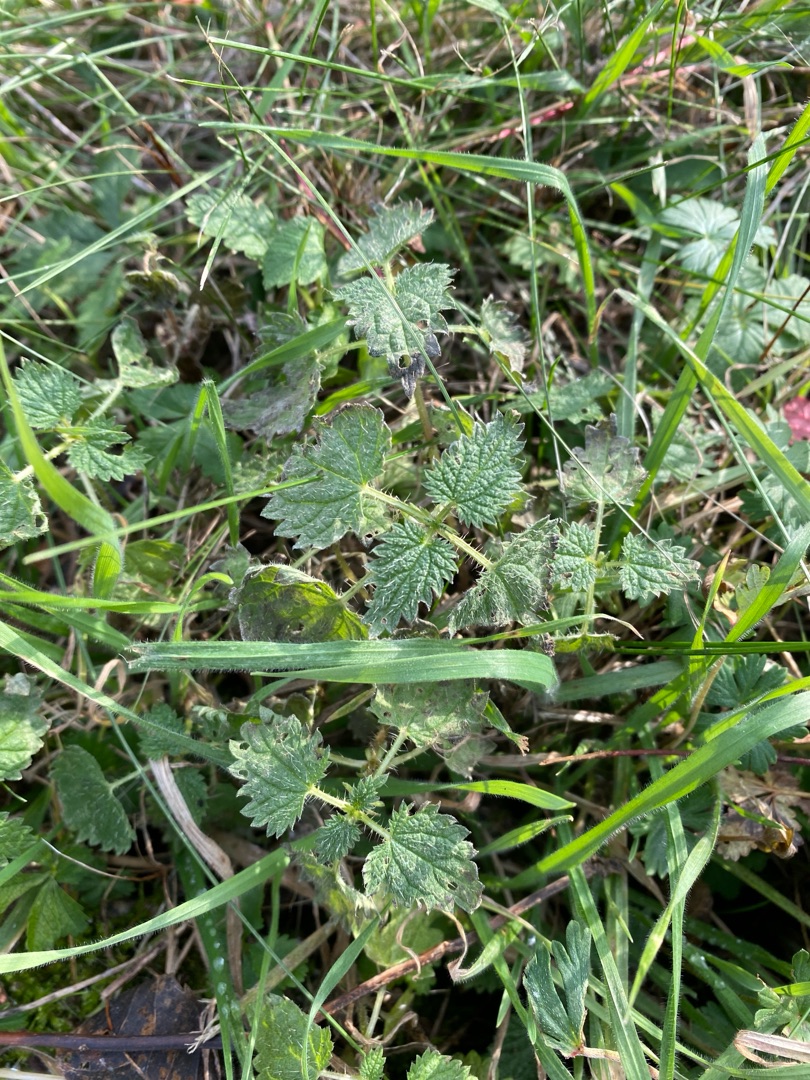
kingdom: Plantae
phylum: Tracheophyta
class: Magnoliopsida
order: Rosales
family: Urticaceae
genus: Urtica
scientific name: Urtica dioica
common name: Stor nælde
